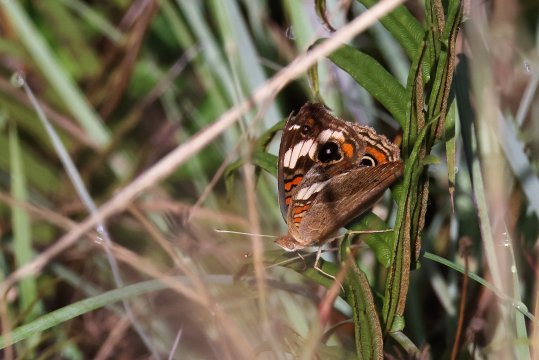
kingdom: Animalia
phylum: Arthropoda
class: Insecta
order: Lepidoptera
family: Nymphalidae
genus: Junonia
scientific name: Junonia lavinia
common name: Tropical Buckeye
